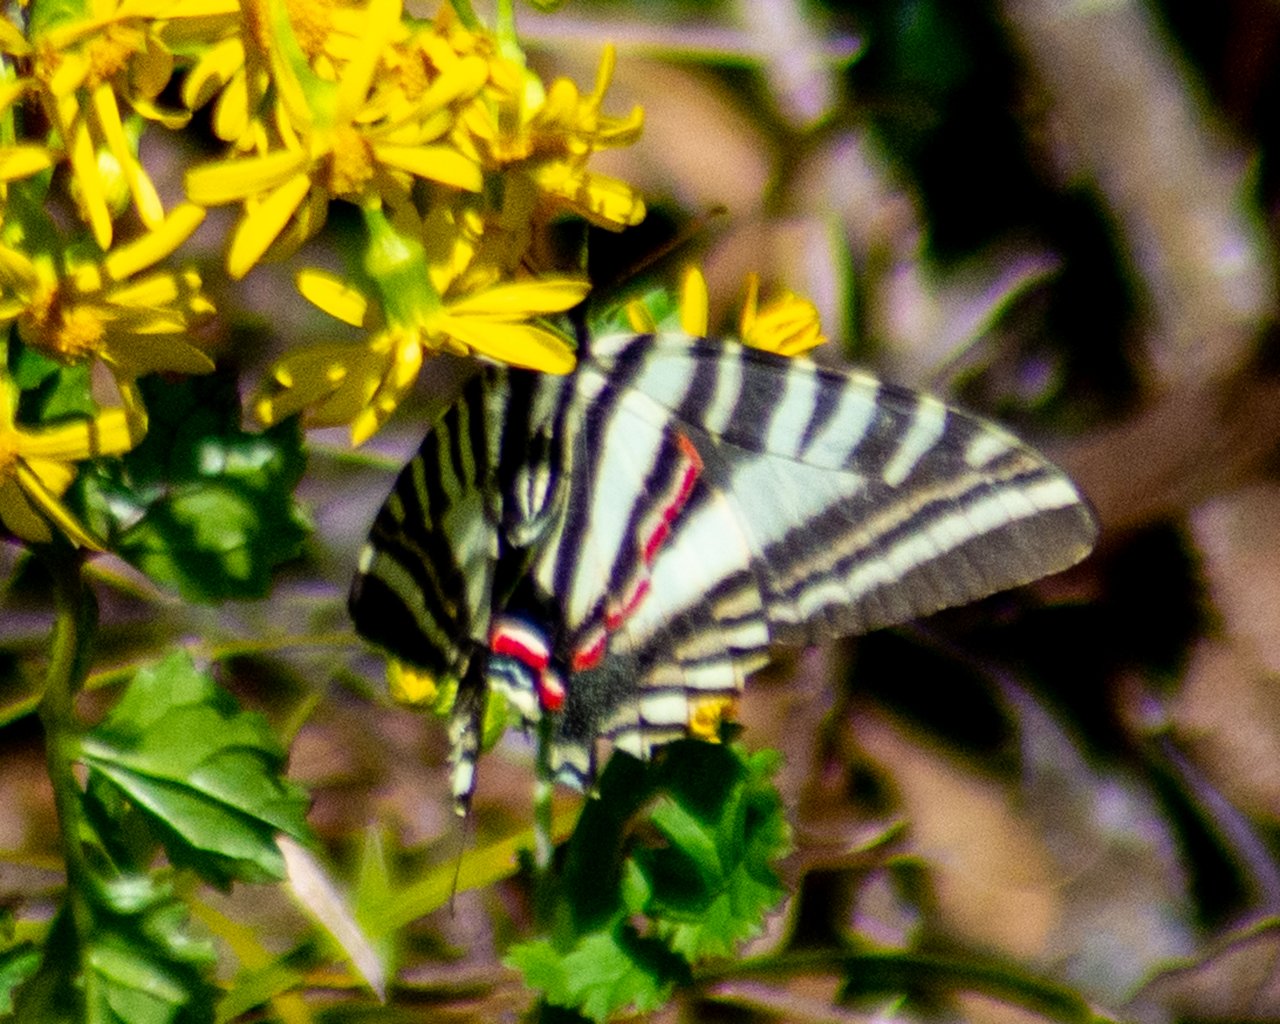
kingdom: Animalia
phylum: Arthropoda
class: Insecta
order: Lepidoptera
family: Papilionidae
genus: Protographium
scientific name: Protographium marcellus
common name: Zebra Swallowtail
